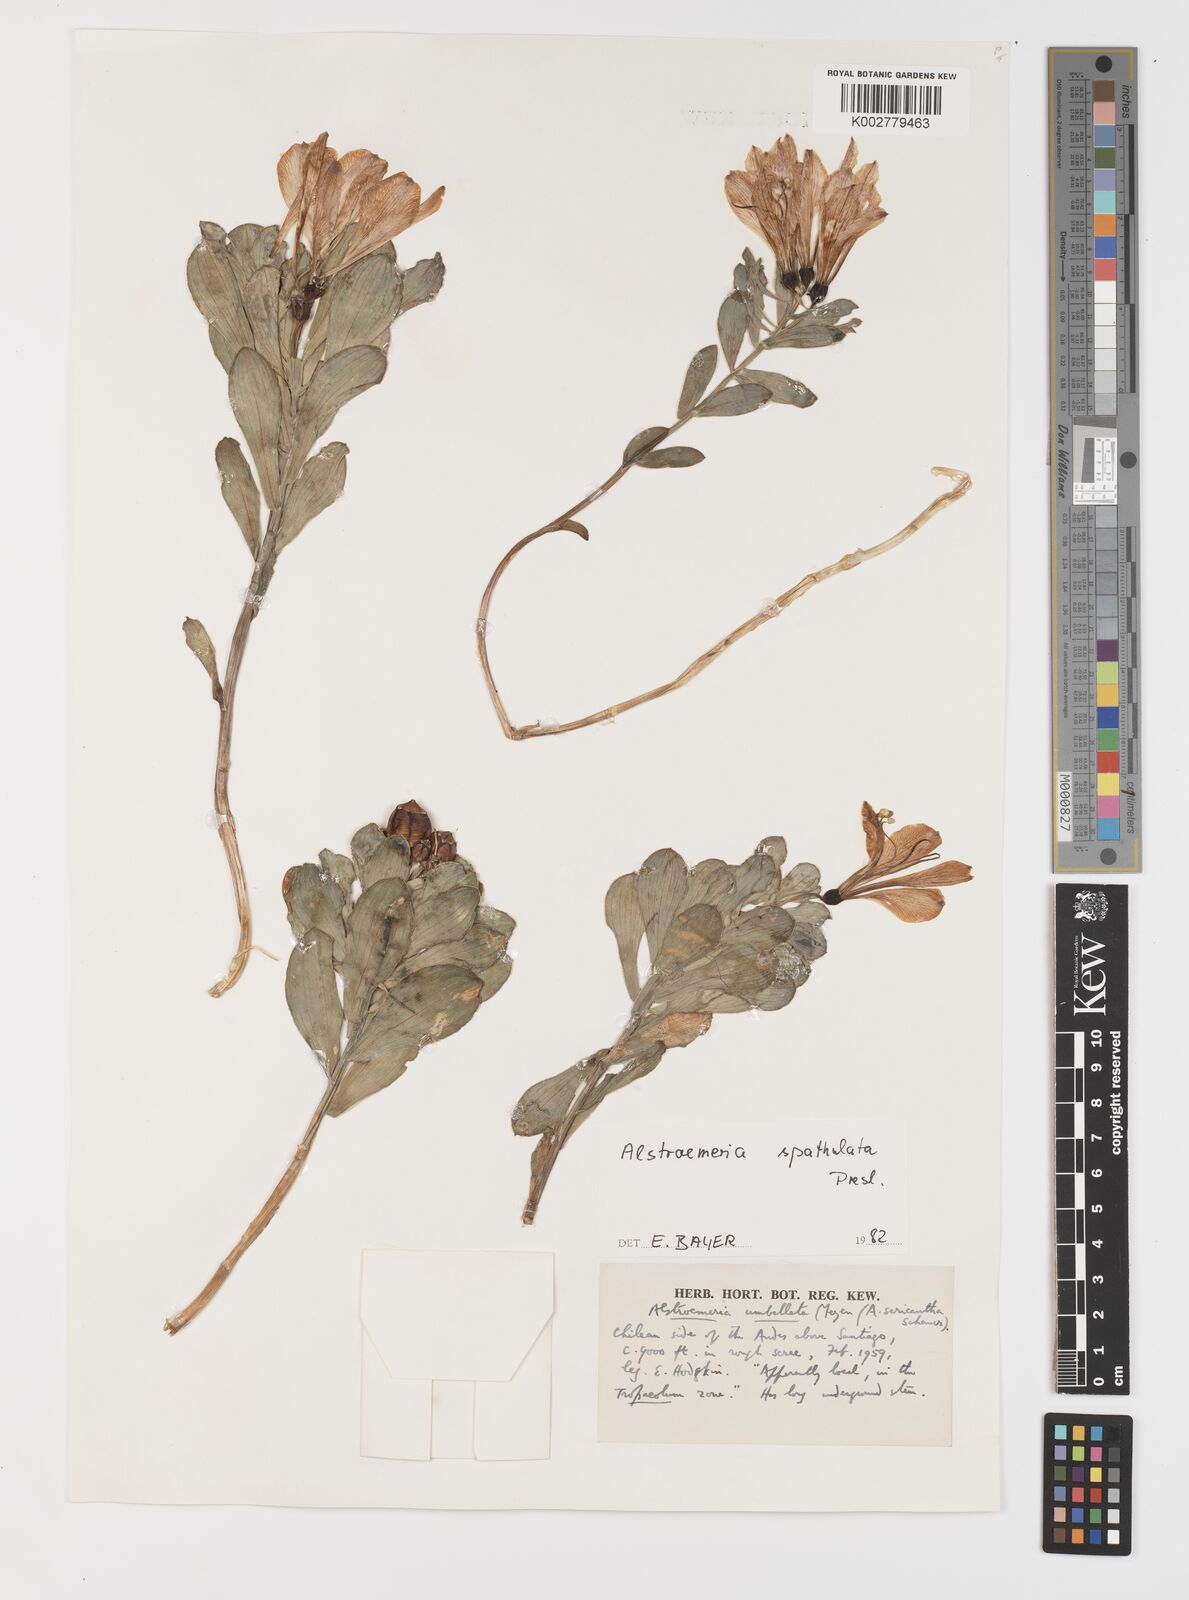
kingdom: Plantae
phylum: Tracheophyta
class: Liliopsida
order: Liliales
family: Alstroemeriaceae
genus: Alstroemeria
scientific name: Alstroemeria spathulata
